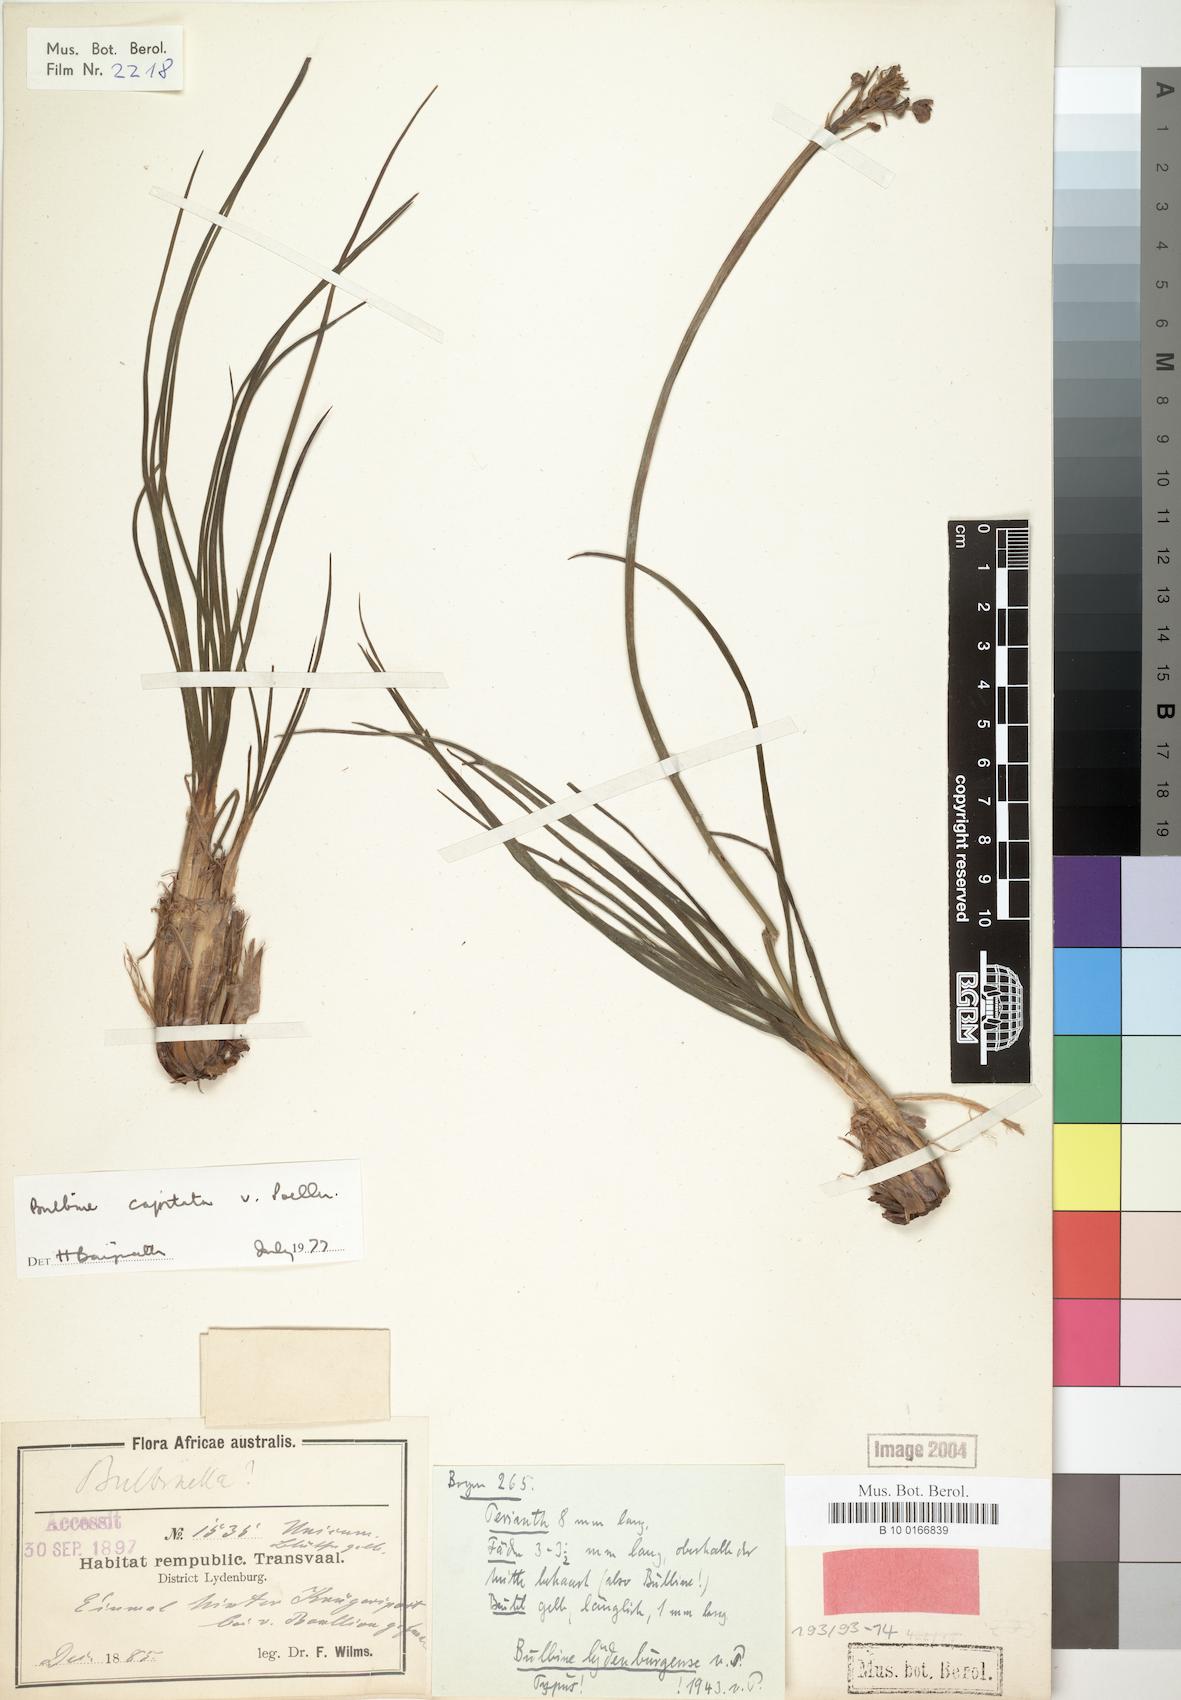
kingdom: Plantae
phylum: Tracheophyta
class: Liliopsida
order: Asparagales
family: Asphodelaceae
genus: Bulbine
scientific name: Bulbine capitata
